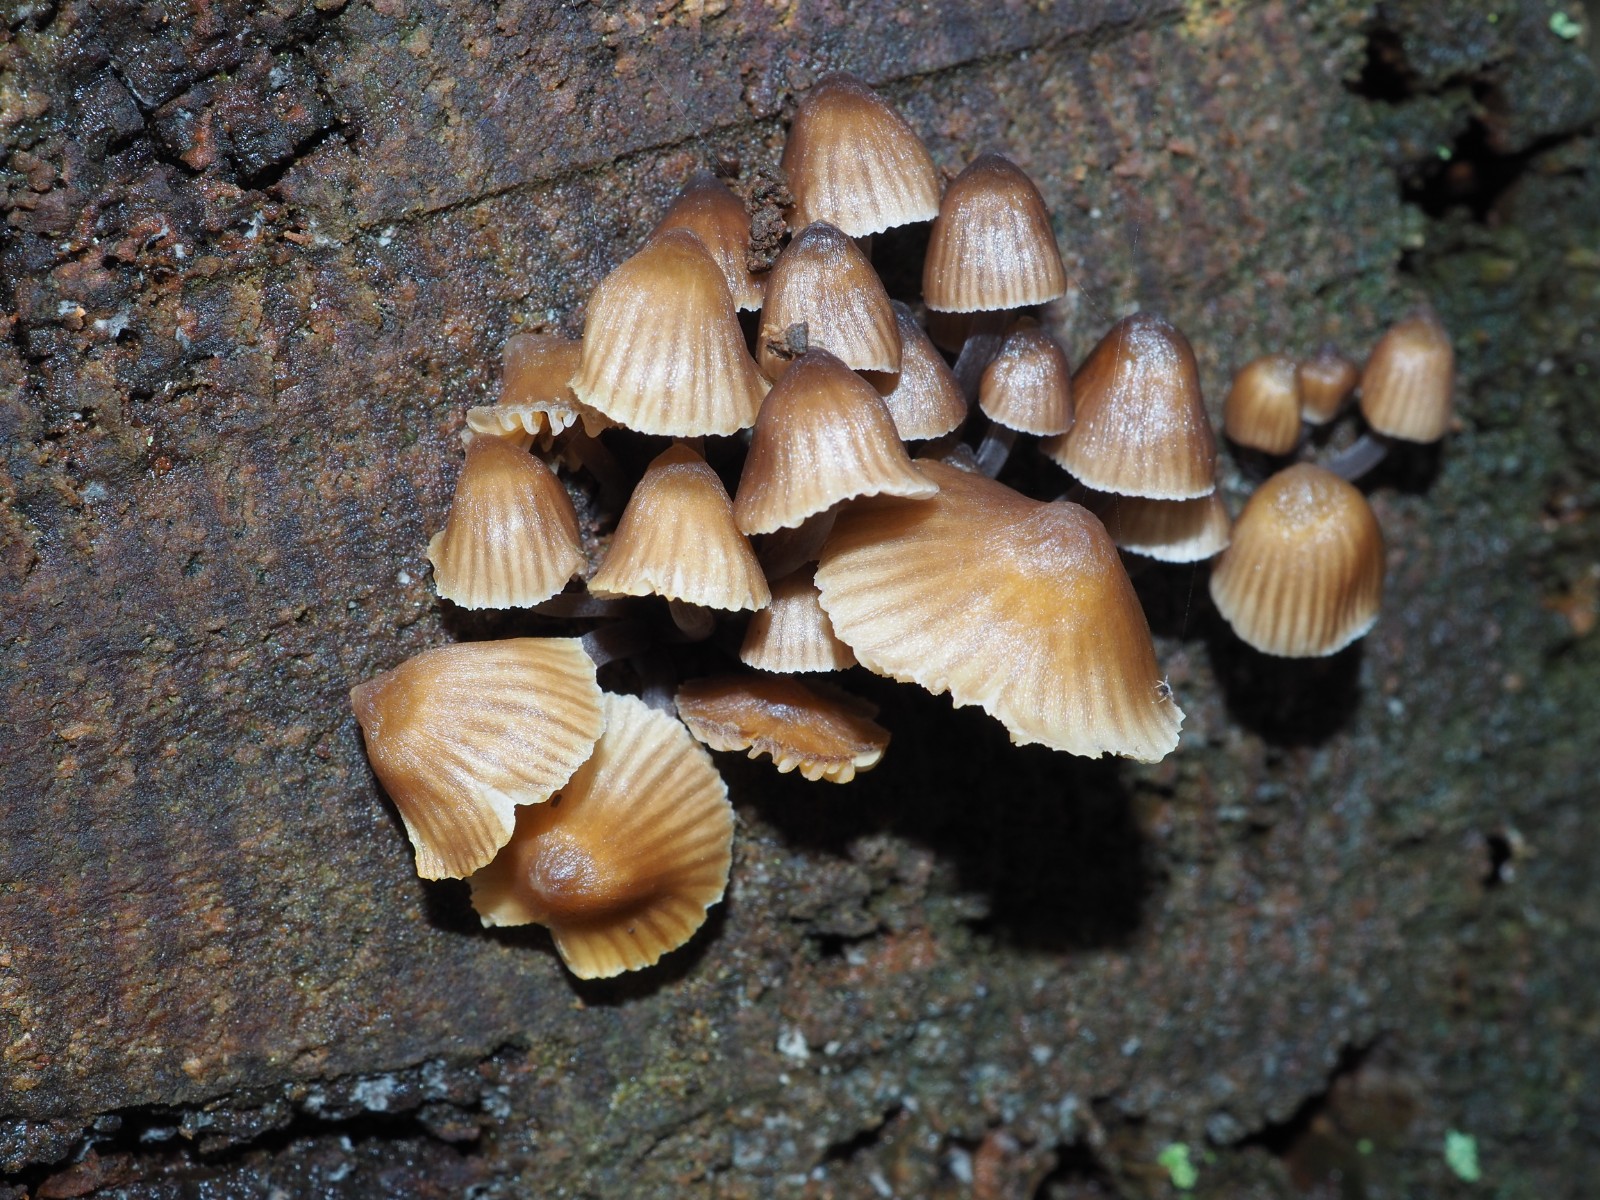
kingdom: Fungi
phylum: Basidiomycota
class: Agaricomycetes
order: Agaricales
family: Mycenaceae
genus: Mycena
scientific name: Mycena stipata
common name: stinkende huesvamp
